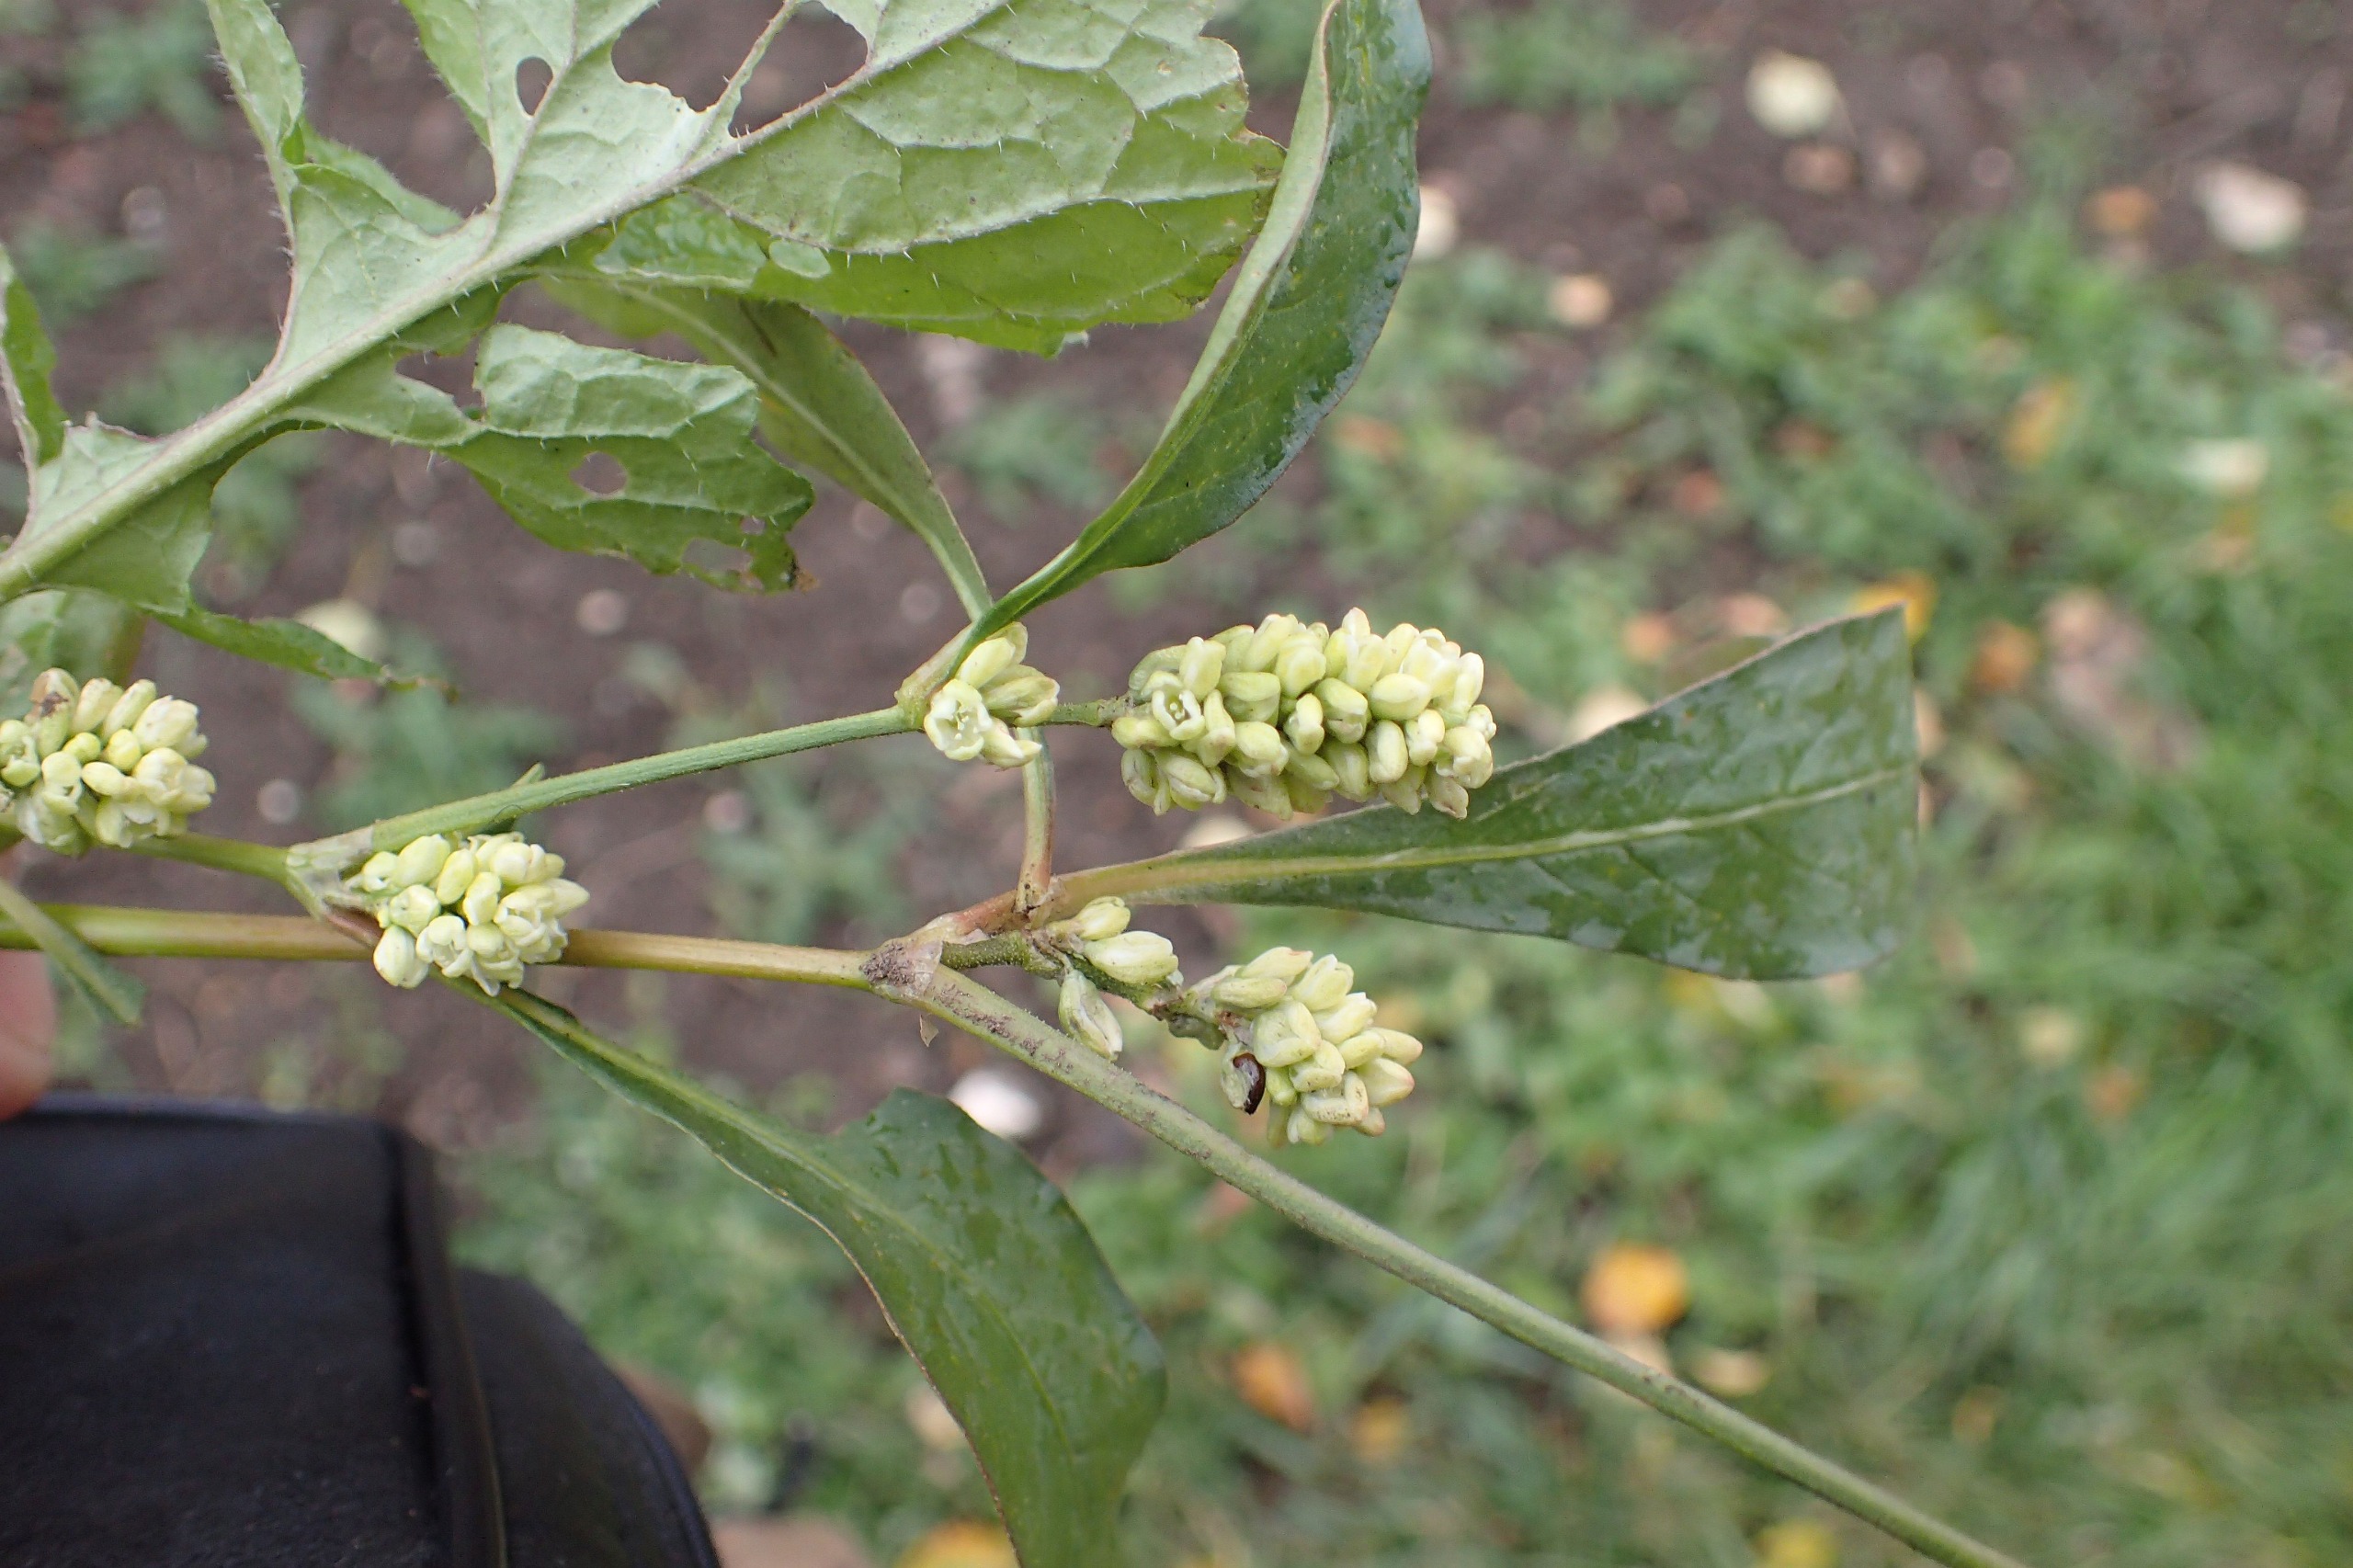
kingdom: Plantae
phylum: Tracheophyta
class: Magnoliopsida
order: Caryophyllales
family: Polygonaceae
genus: Persicaria
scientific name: Persicaria lapathifolia
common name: Bleg pileurt
